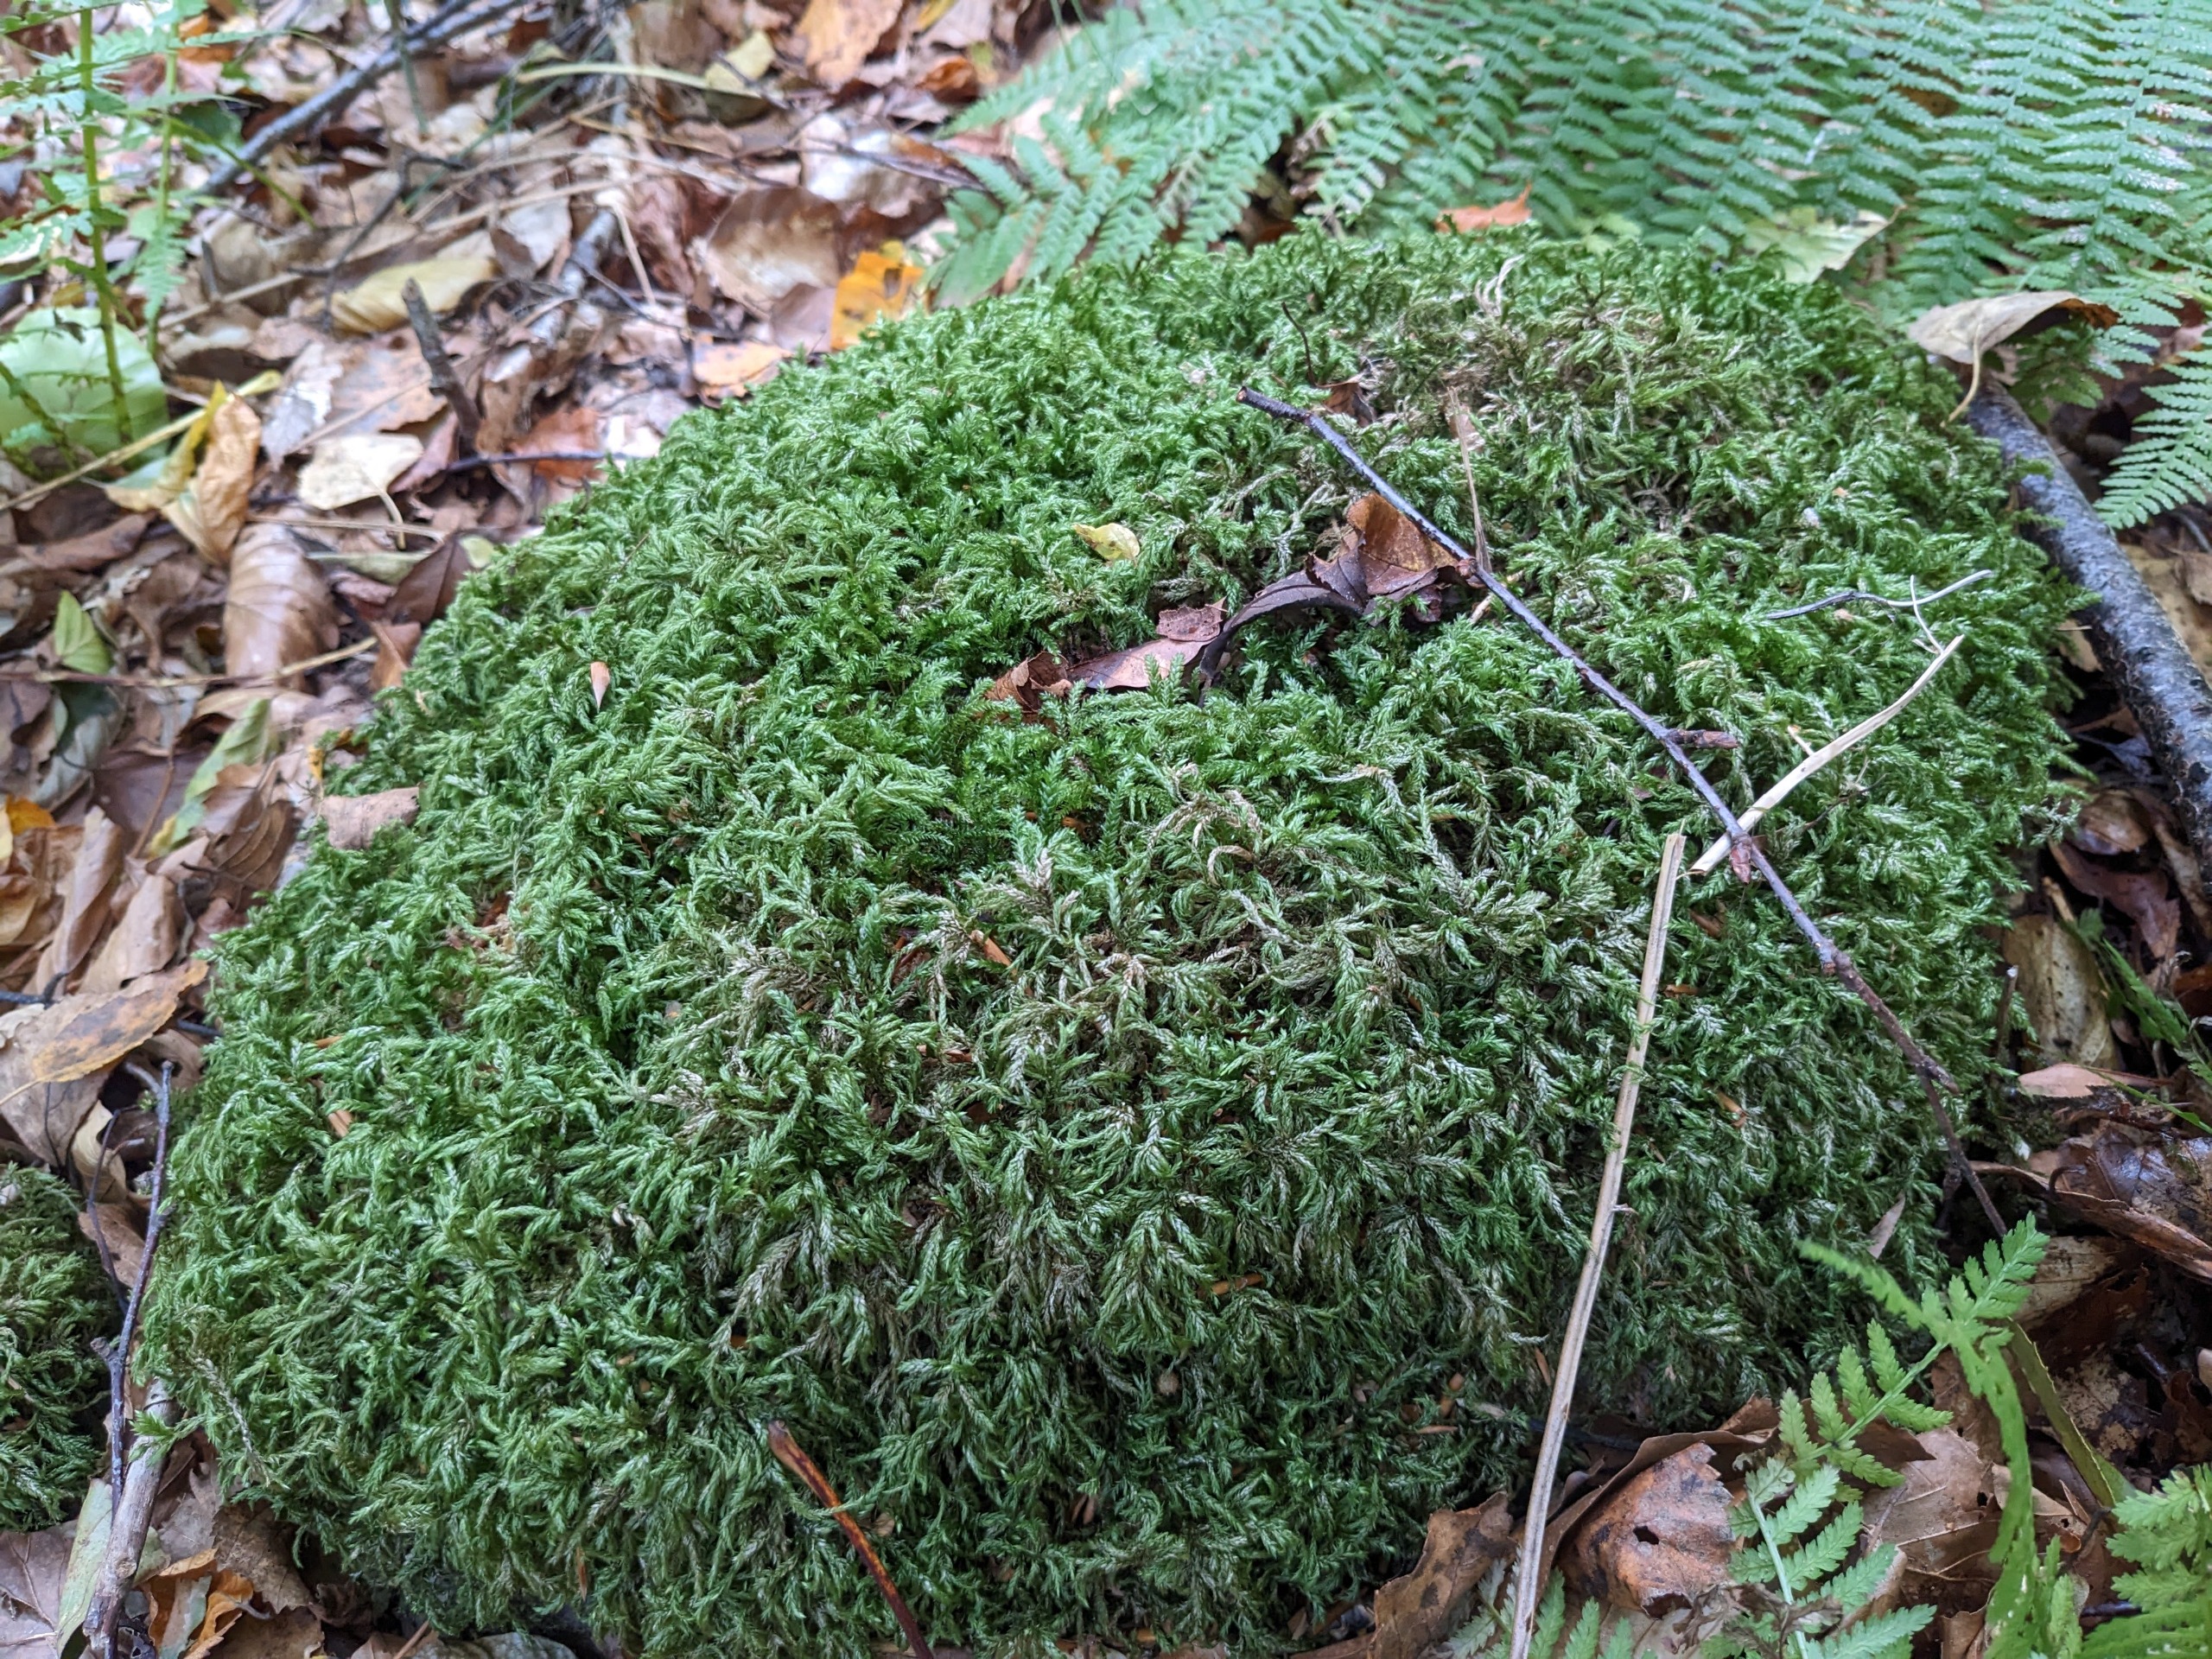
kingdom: Plantae
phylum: Bryophyta
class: Bryopsida
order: Hypnales
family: Lembophyllaceae
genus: Isothecium
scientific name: Isothecium alopecuroides
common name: Stor stammemos
